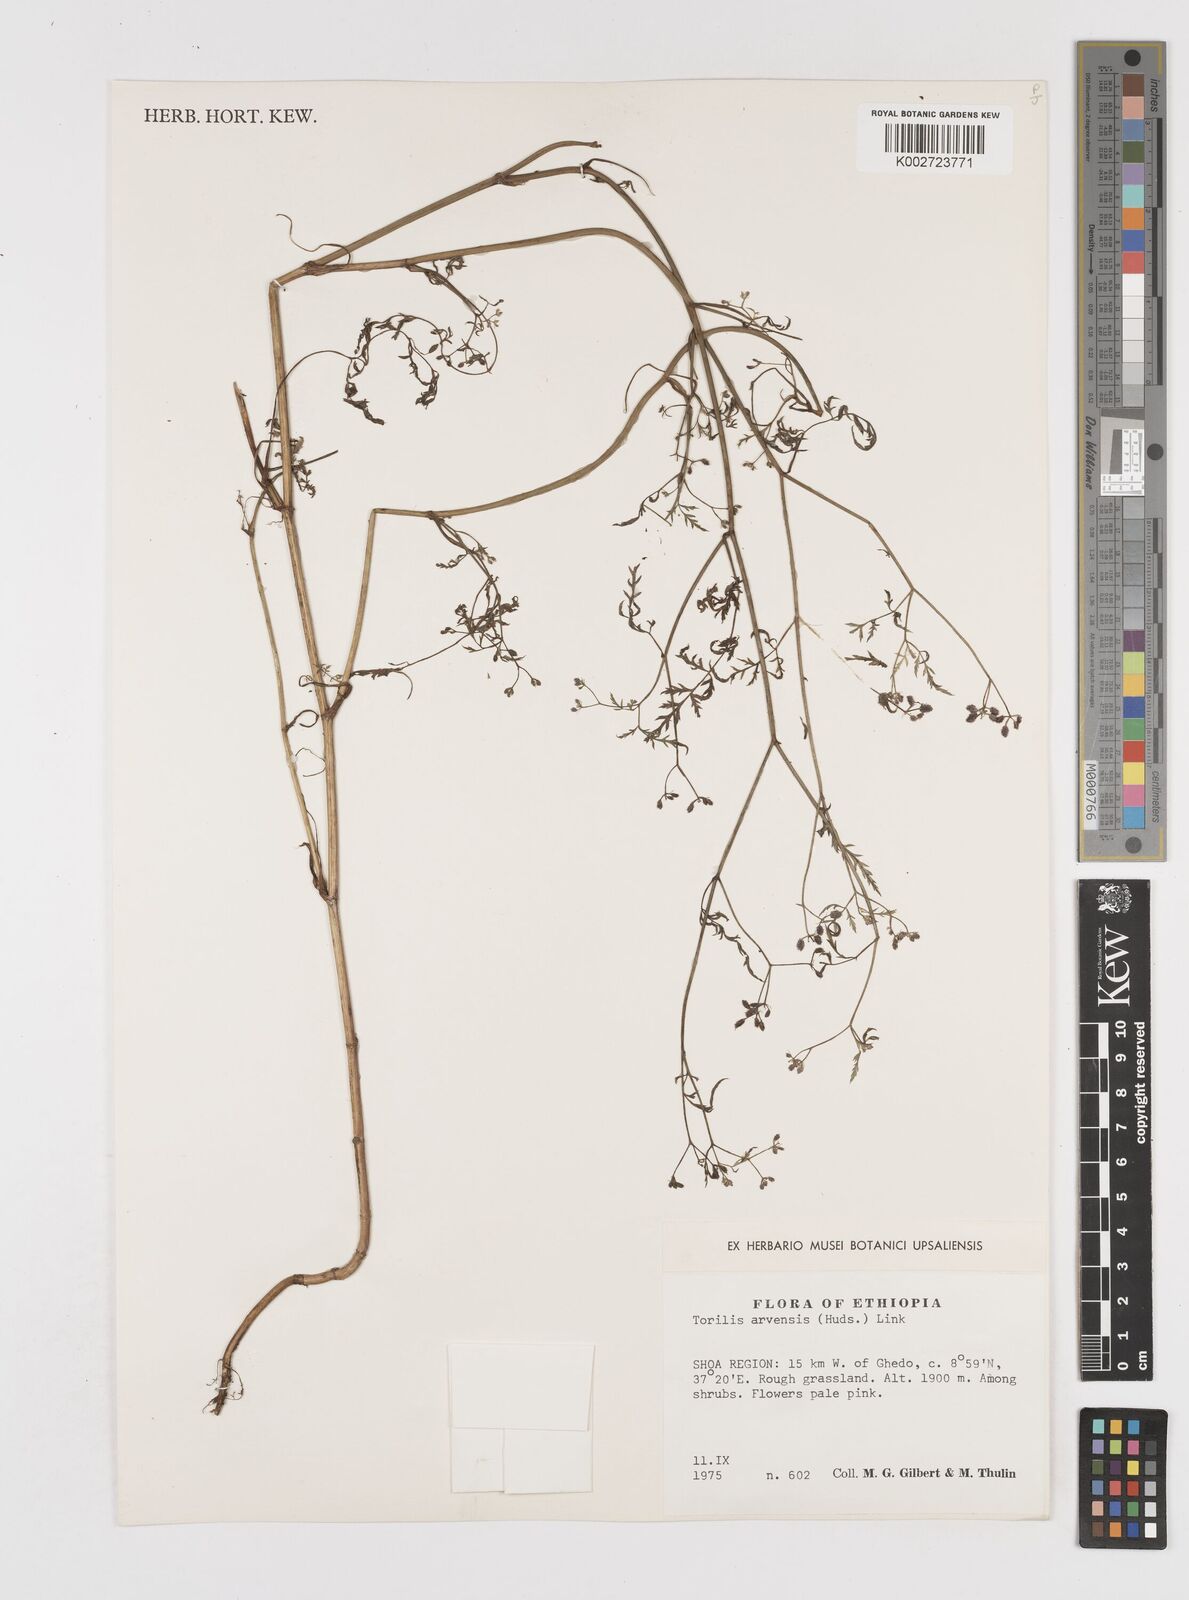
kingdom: Plantae
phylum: Tracheophyta
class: Magnoliopsida
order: Apiales
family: Apiaceae
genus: Torilis
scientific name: Torilis arvensis
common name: Spreading hedge-parsley
